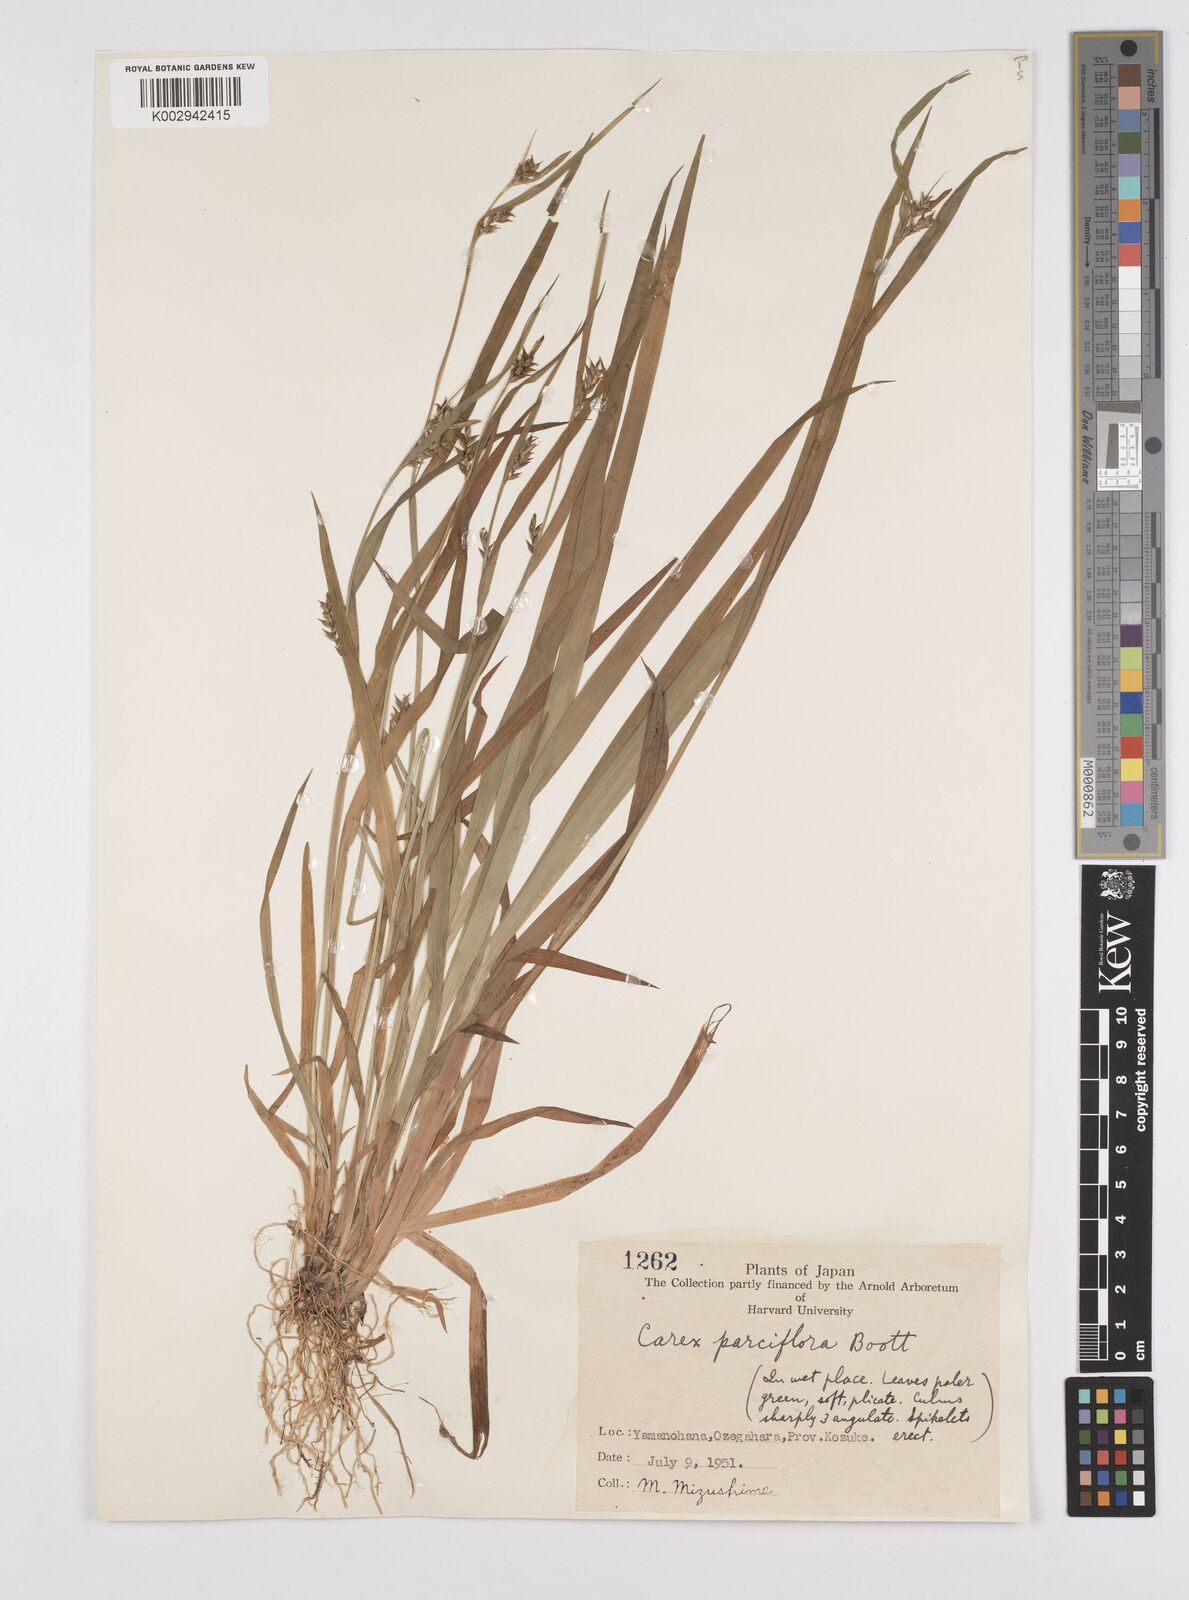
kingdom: Plantae
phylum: Tracheophyta
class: Liliopsida
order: Poales
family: Cyperaceae
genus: Carex
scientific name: Carex parciflora
